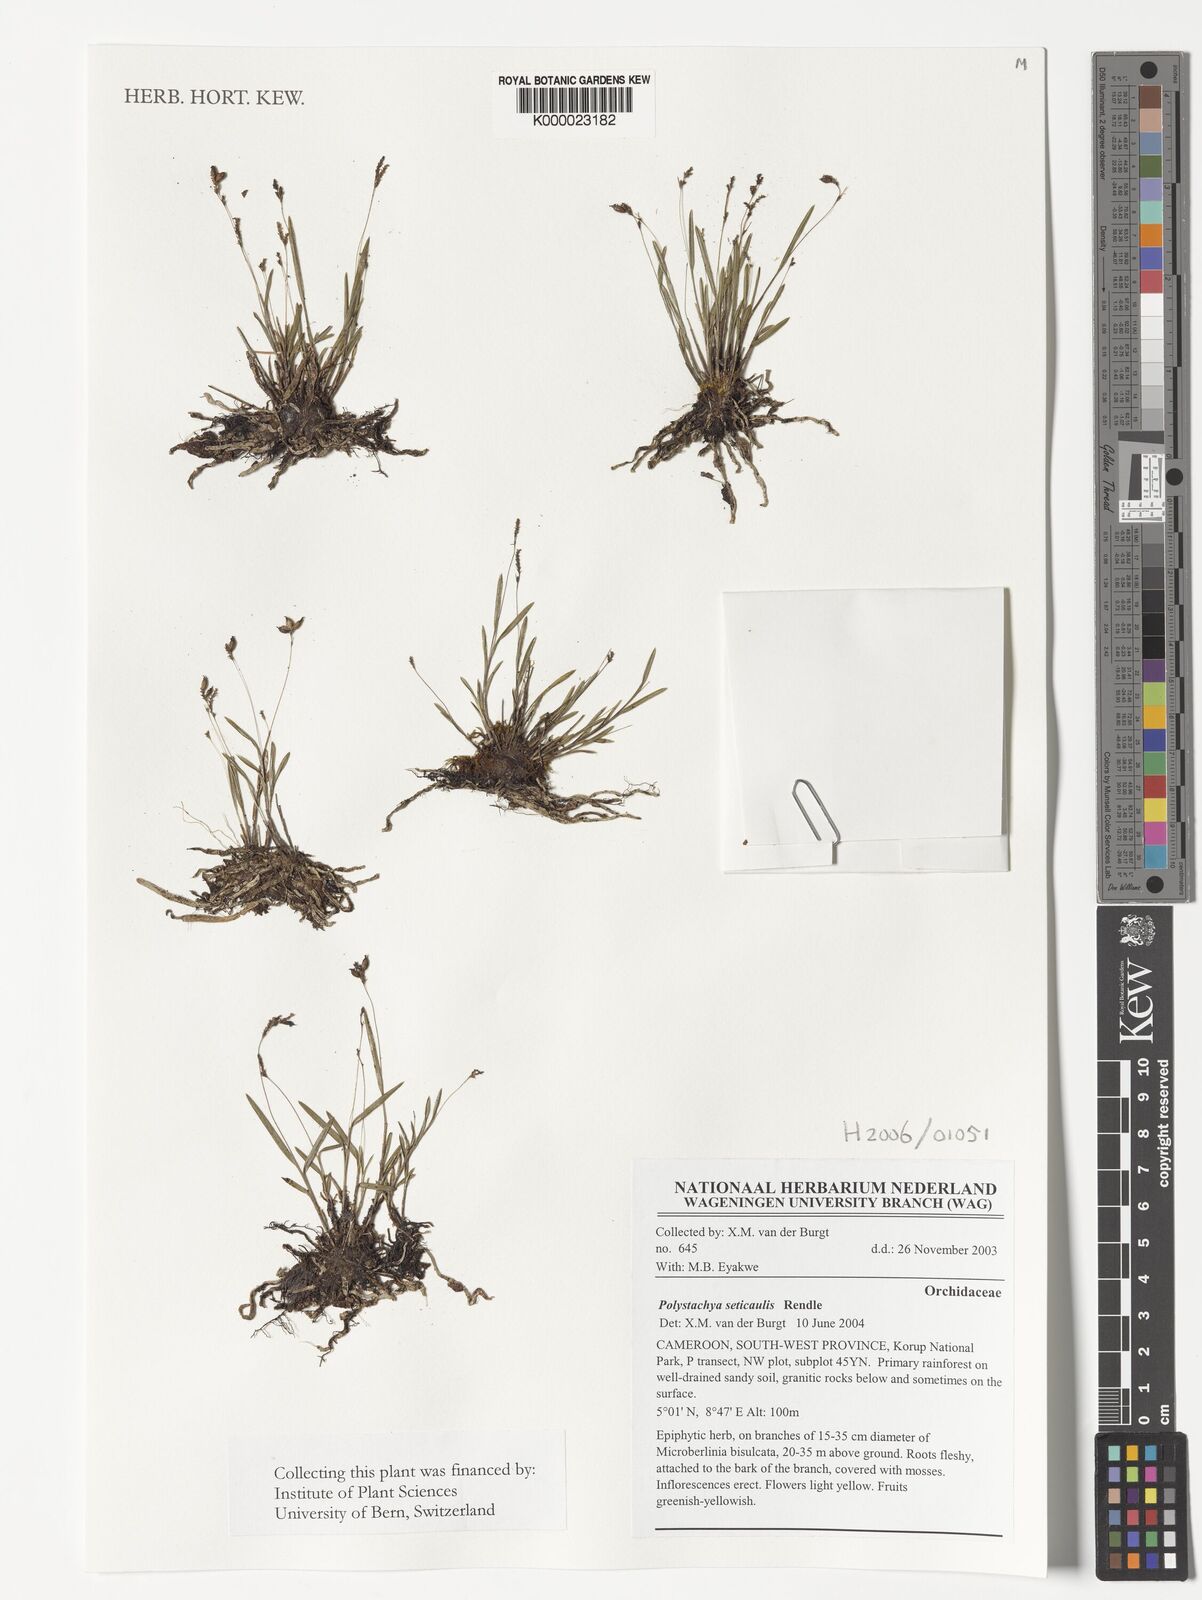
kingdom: Plantae
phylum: Tracheophyta
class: Liliopsida
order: Asparagales
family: Orchidaceae
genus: Polystachya
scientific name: Polystachya seticaulis
